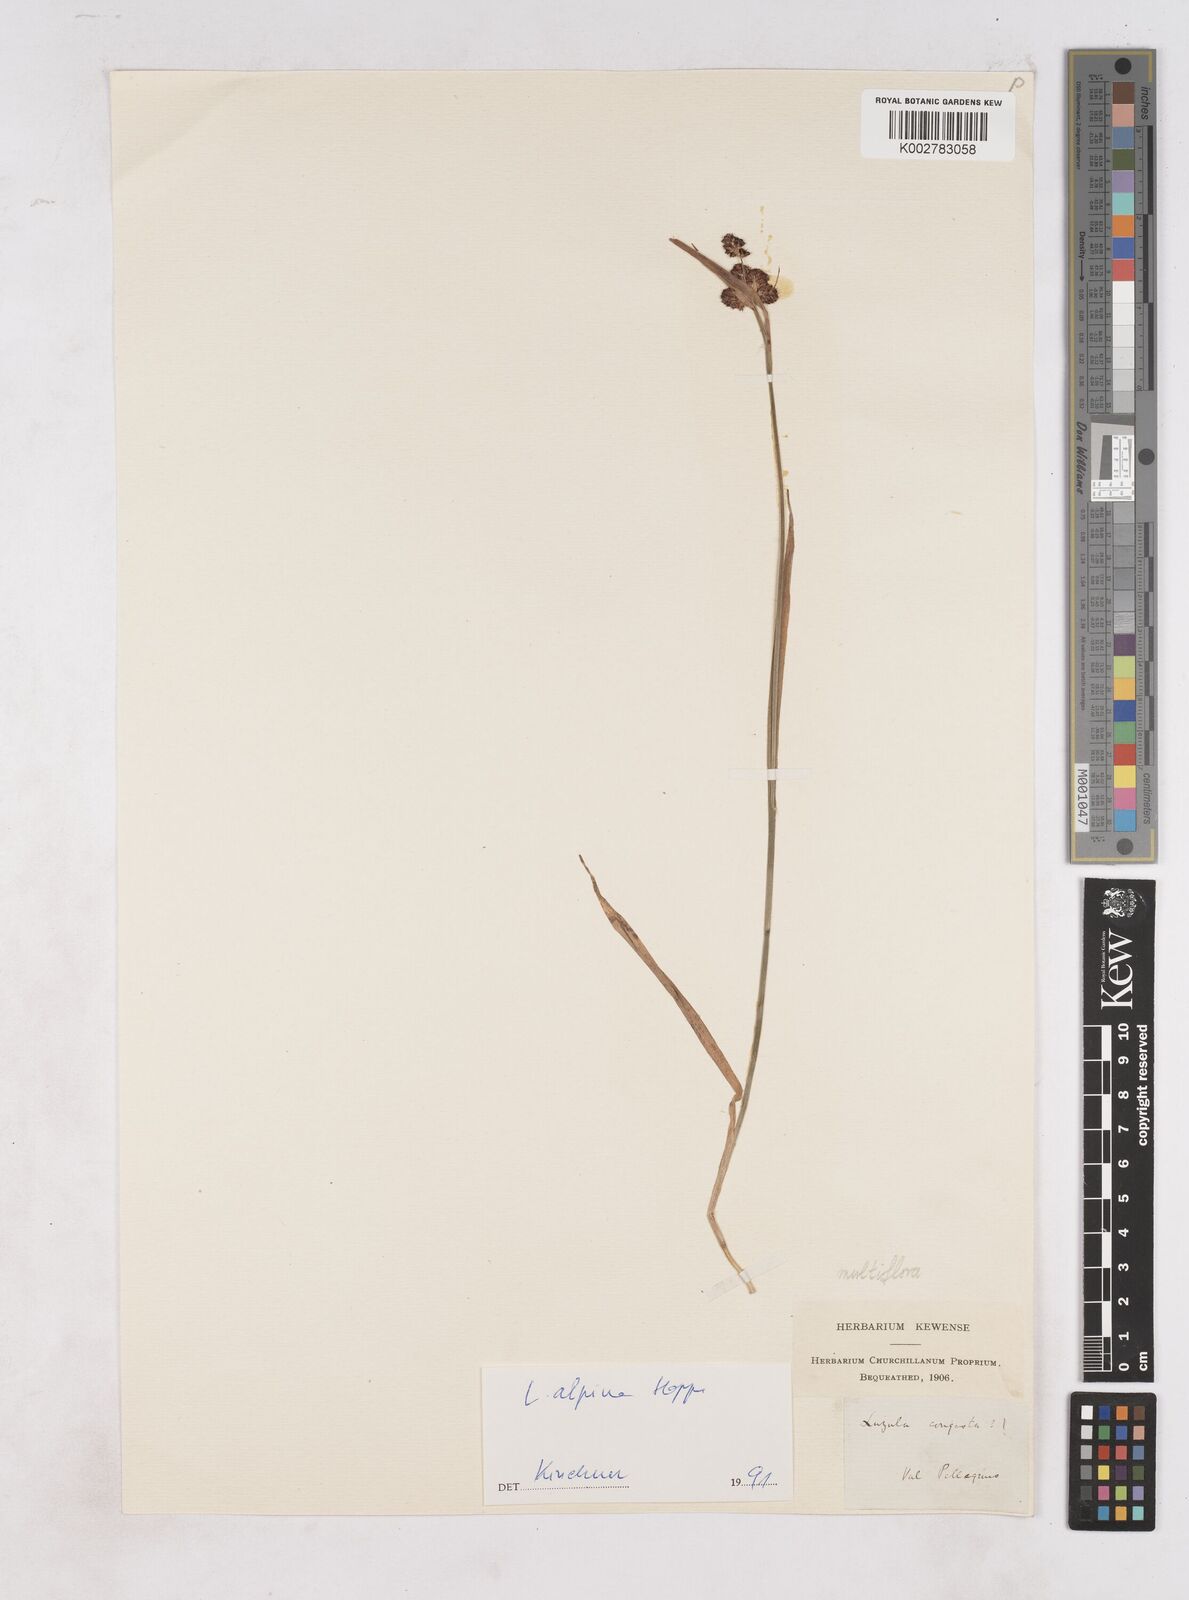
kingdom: Plantae
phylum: Tracheophyta
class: Liliopsida
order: Poales
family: Juncaceae
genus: Luzula
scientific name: Luzula campestris
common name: Field wood-rush
